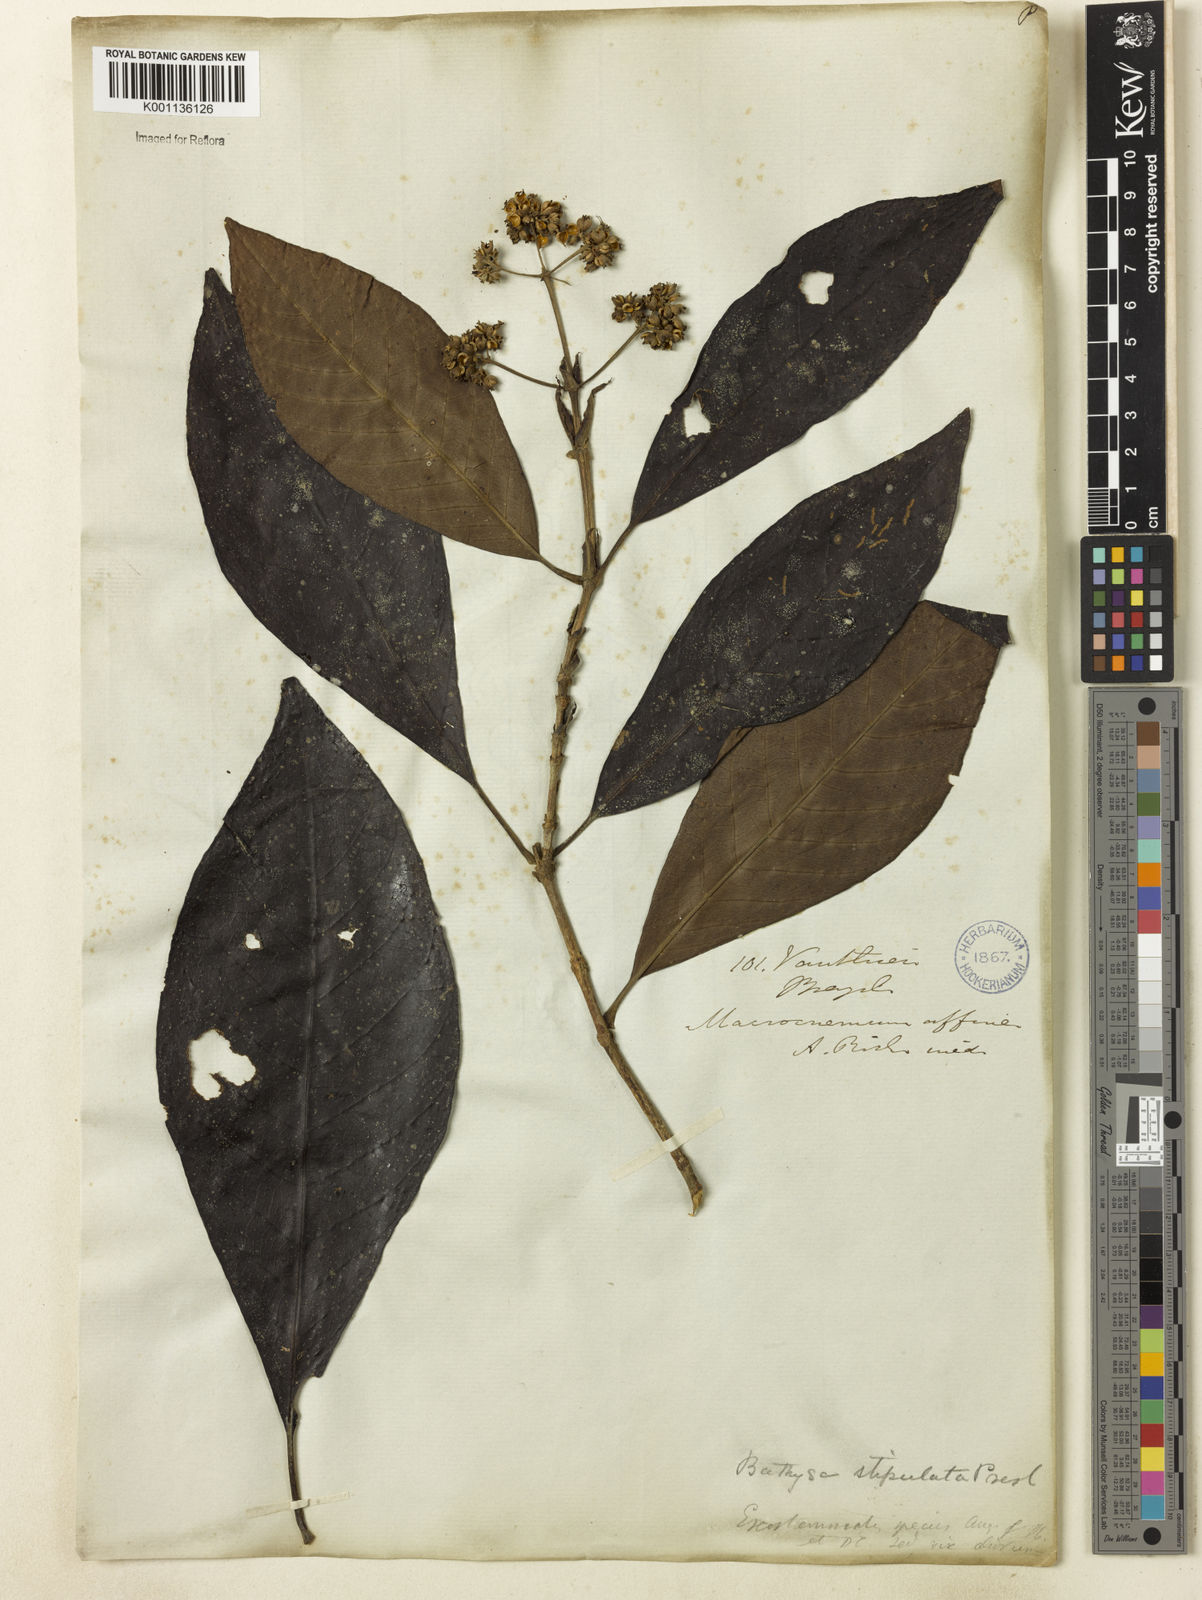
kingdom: Plantae
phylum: Tracheophyta
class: Magnoliopsida
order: Gentianales
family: Rubiaceae
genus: Bathysa
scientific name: Bathysa stipulata
